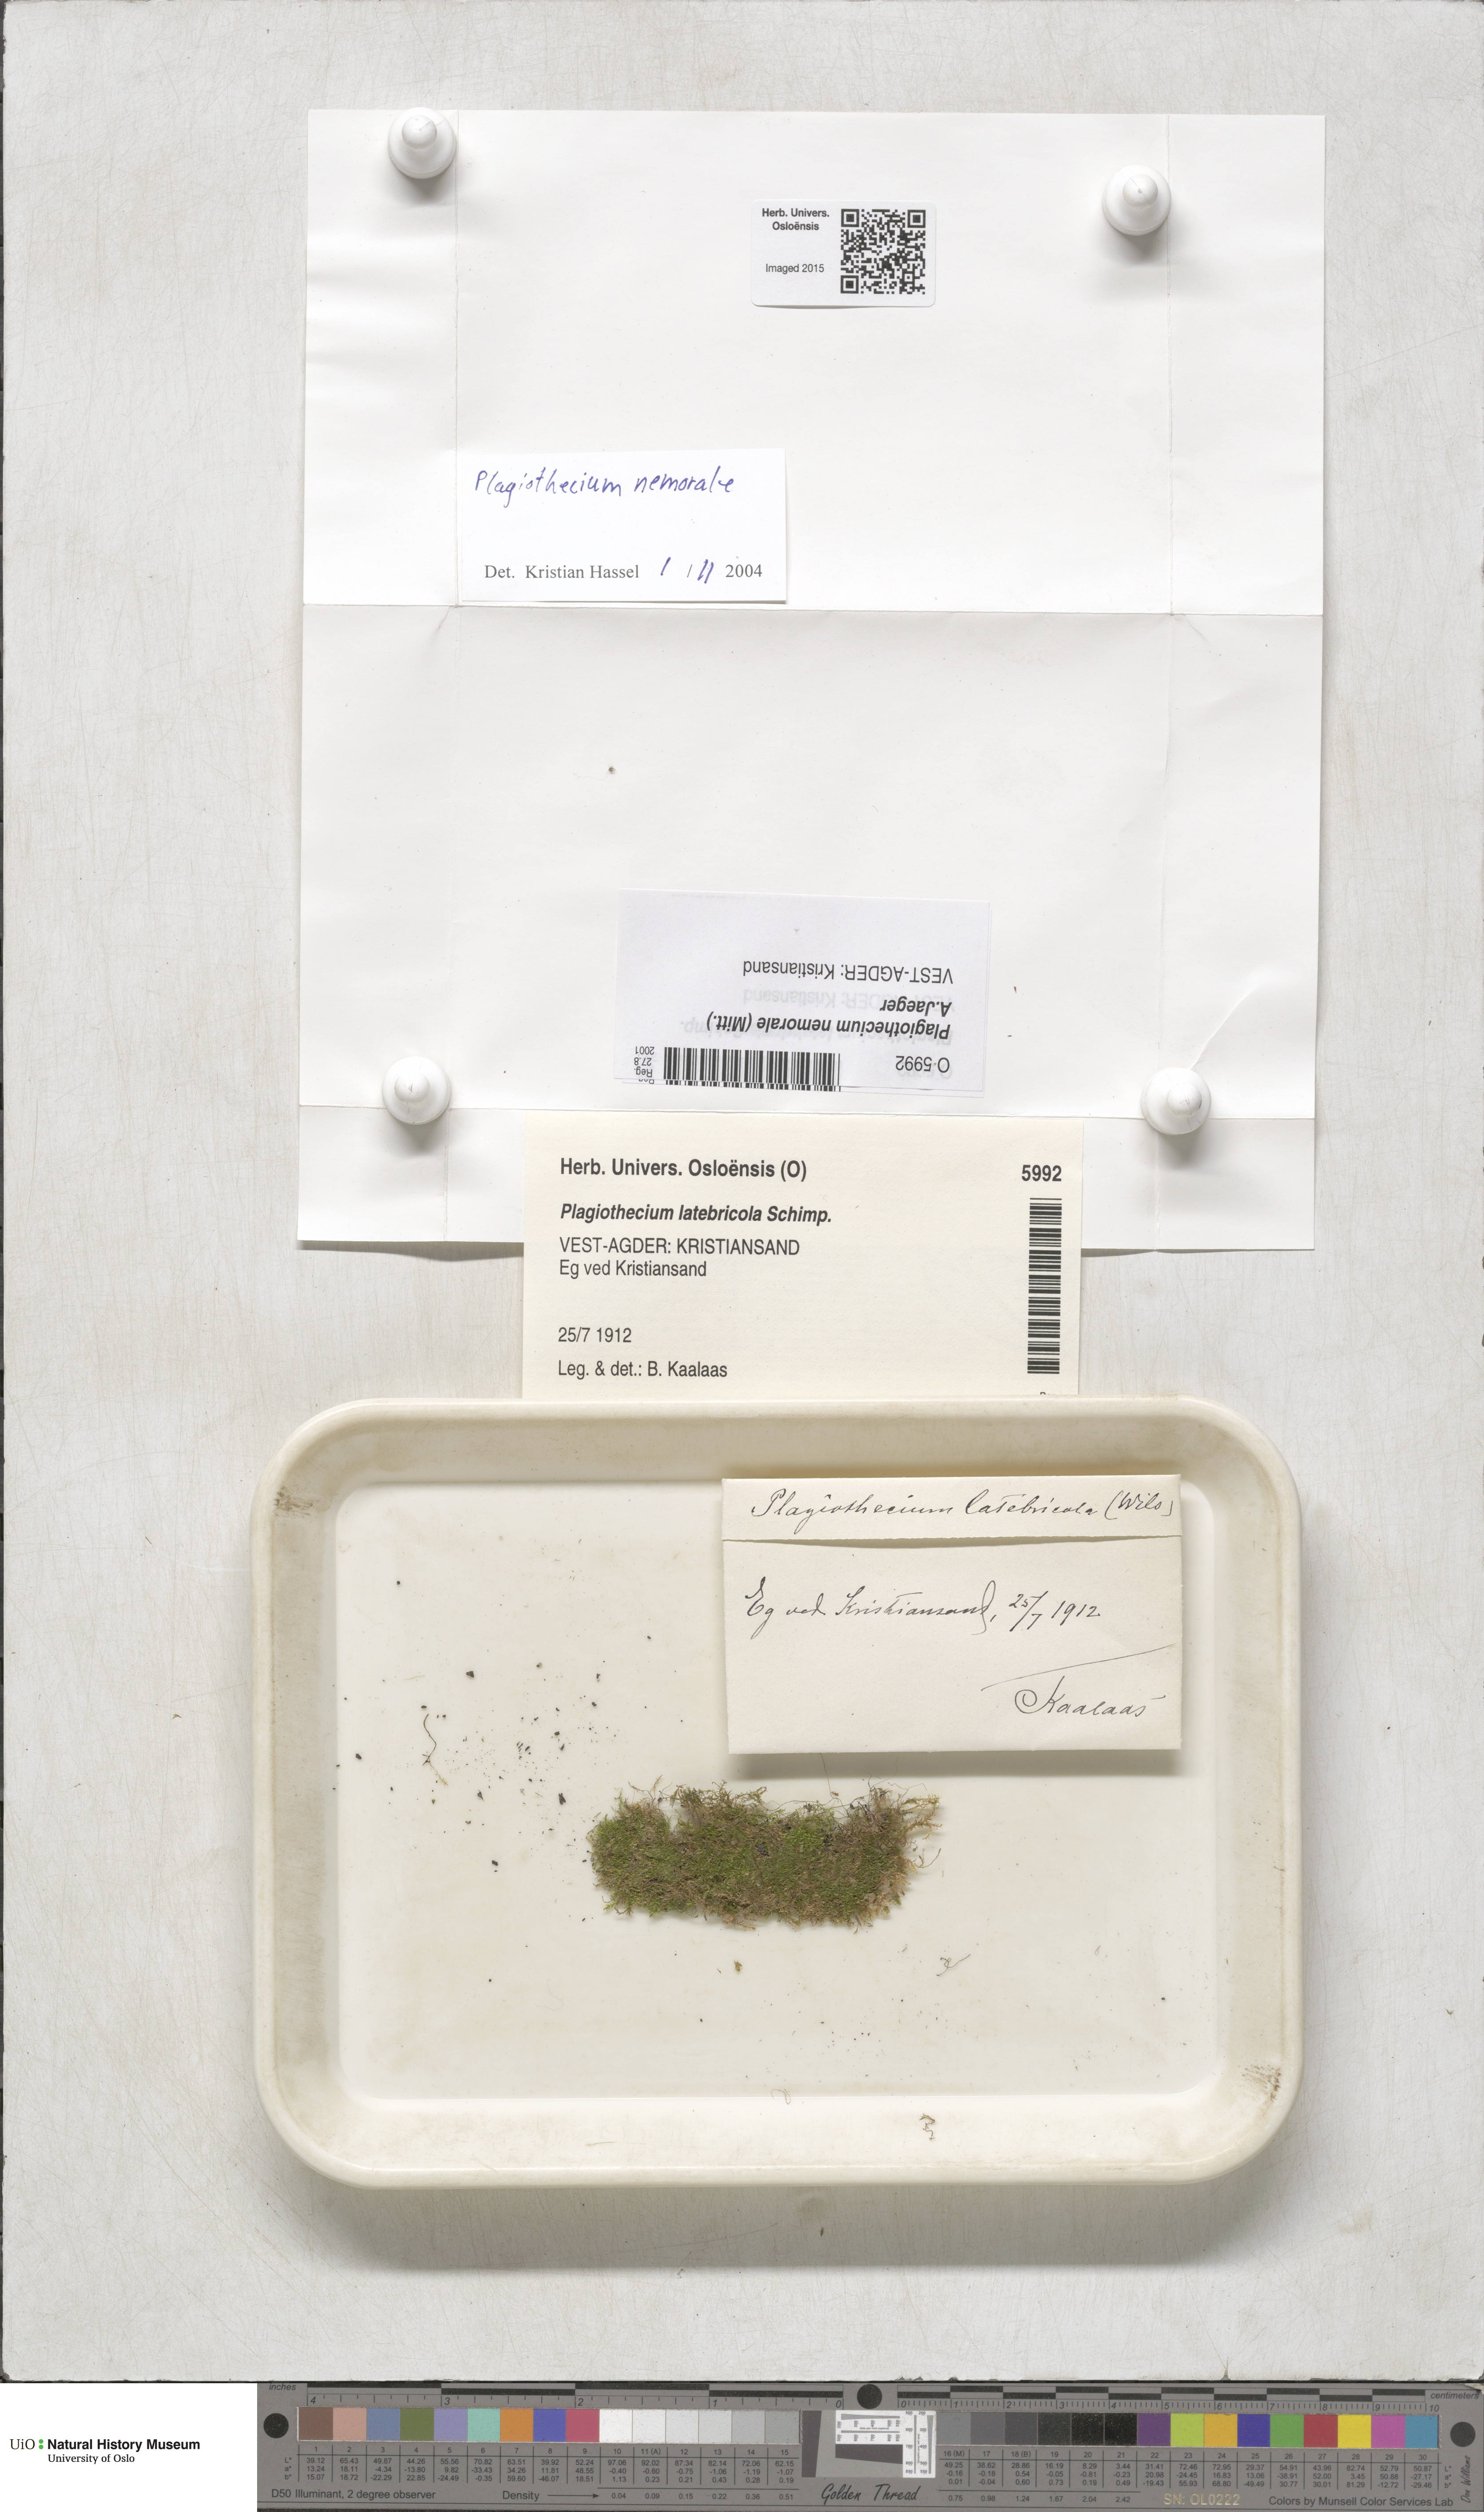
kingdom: Plantae
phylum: Bryophyta
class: Bryopsida
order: Hypnales
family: Plagiotheciaceae
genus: Plagiothecium
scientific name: Plagiothecium nemorale
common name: Woodsy silk-moss
